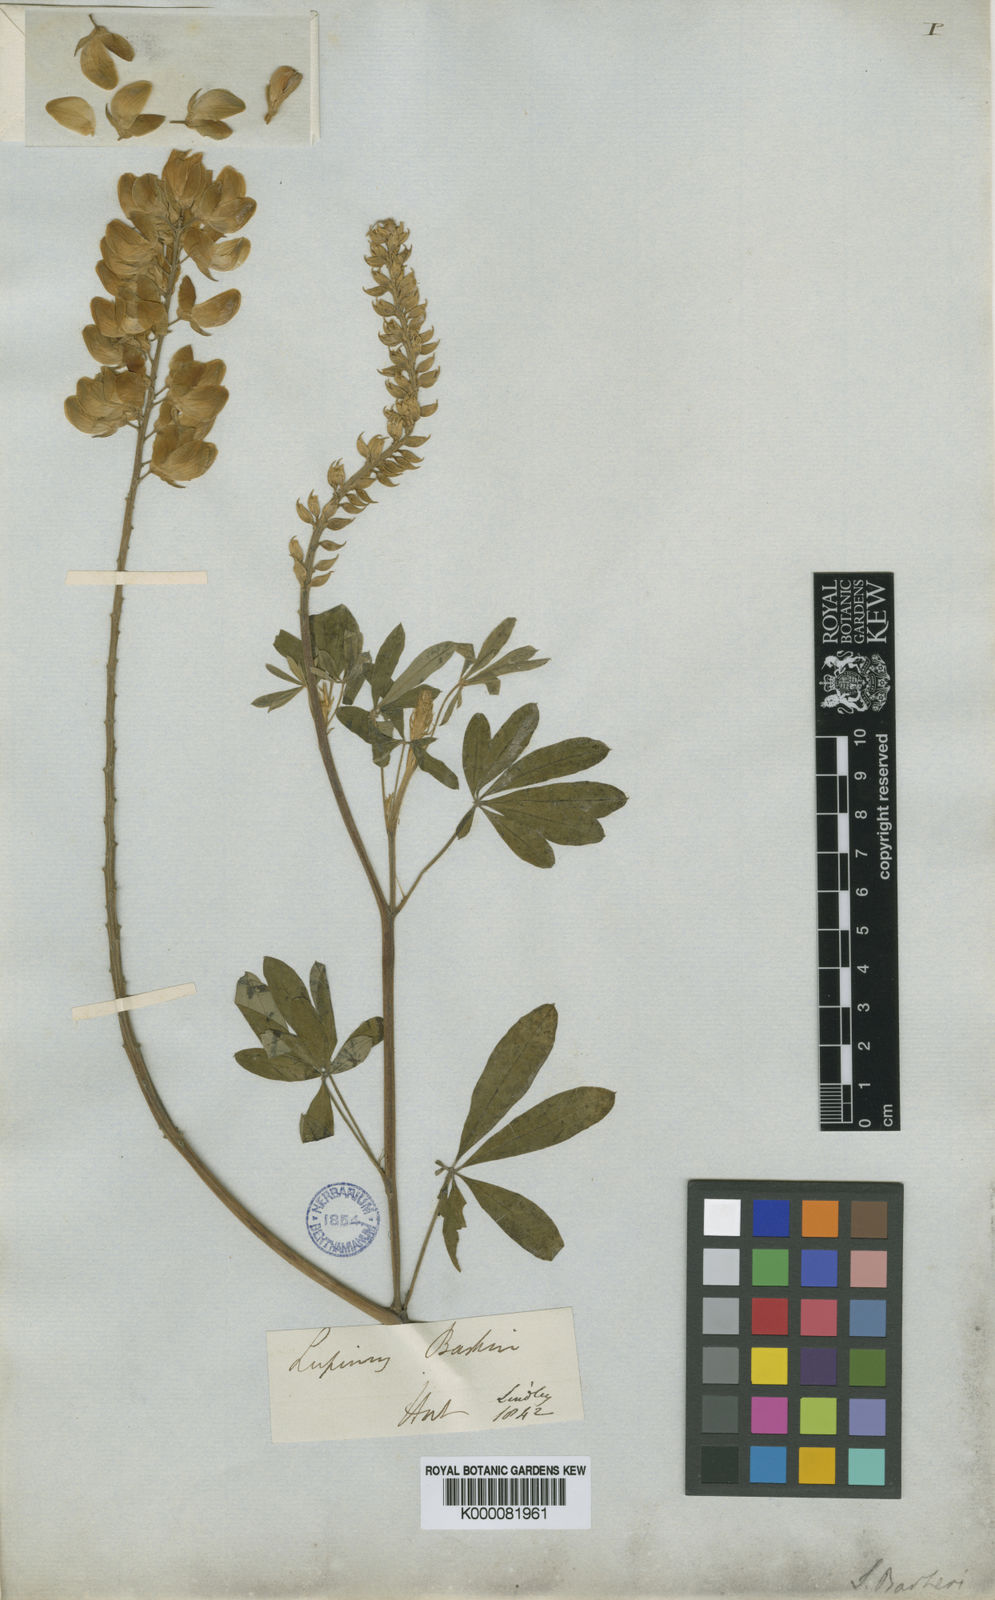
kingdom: Plantae
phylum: Tracheophyta
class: Magnoliopsida
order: Fabales
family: Fabaceae
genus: Lupinus
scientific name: Lupinus barkeri
